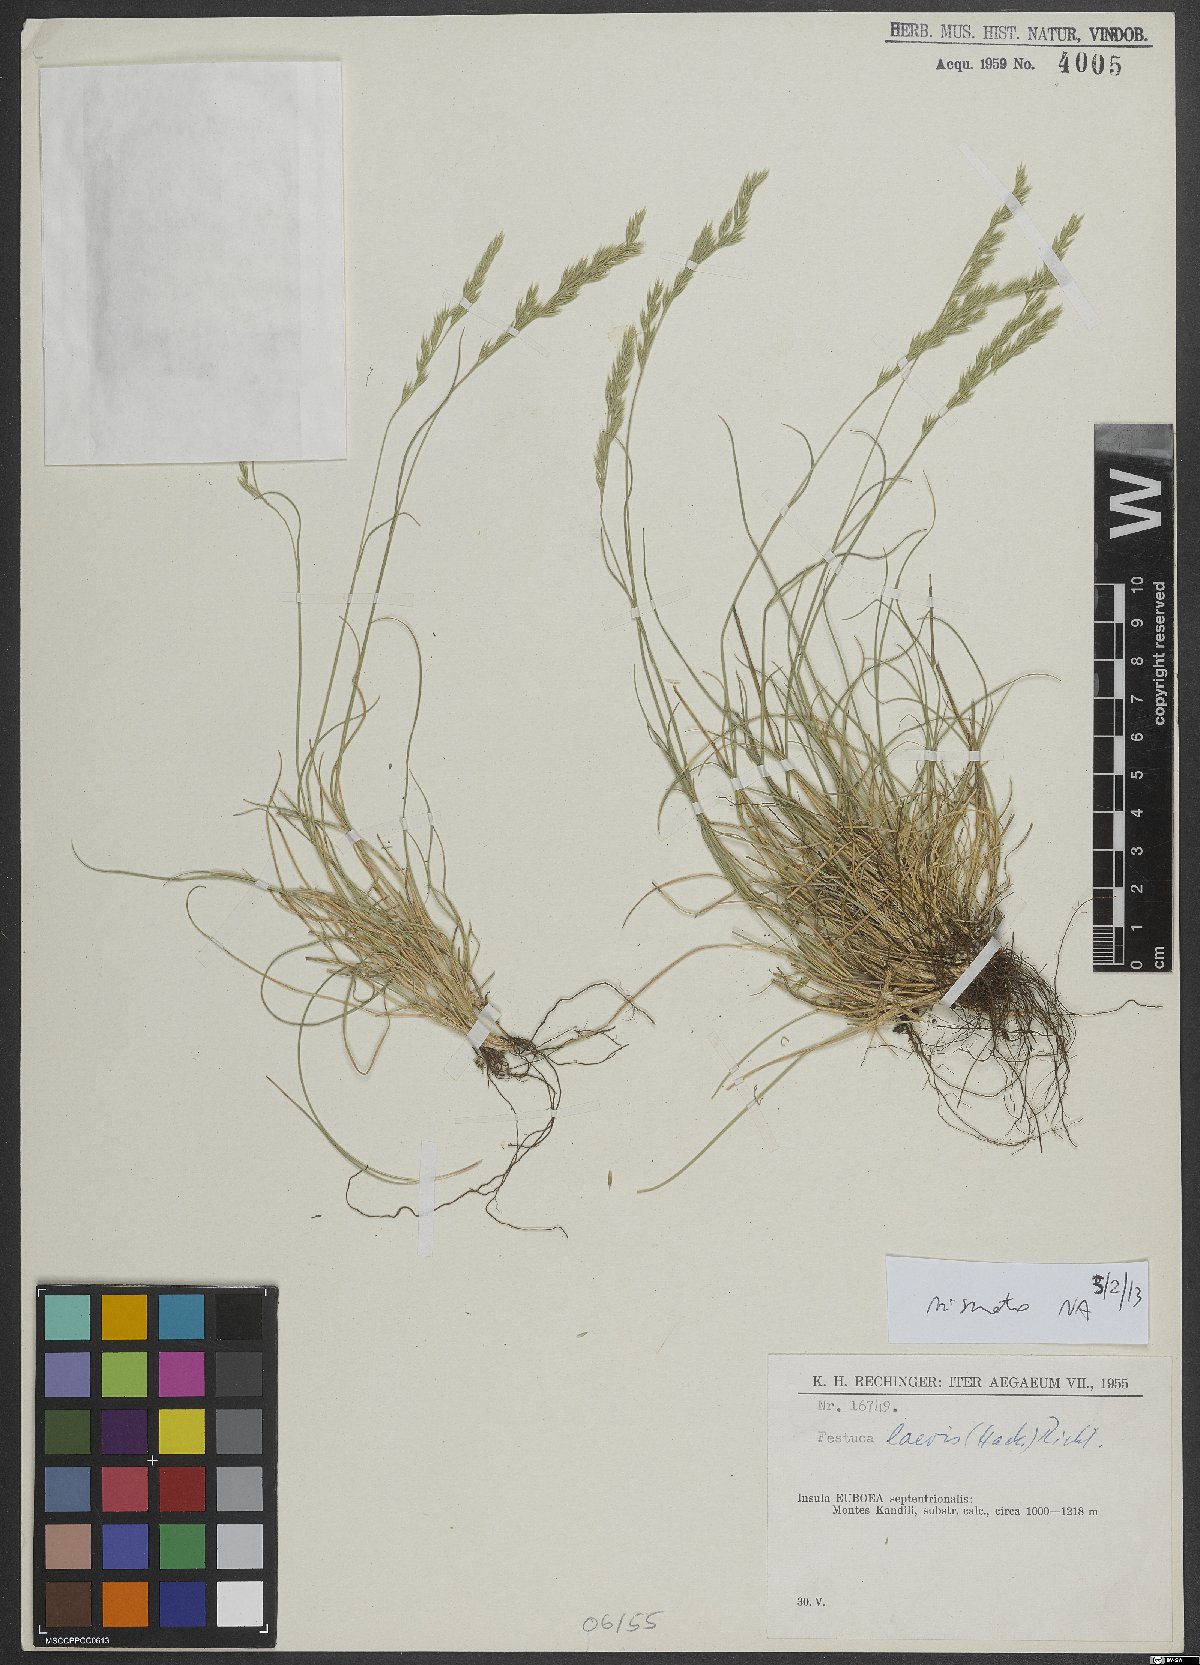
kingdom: Plantae
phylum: Tracheophyta
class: Liliopsida
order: Poales
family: Poaceae
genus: Festuca
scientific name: Festuca circummediterranea
